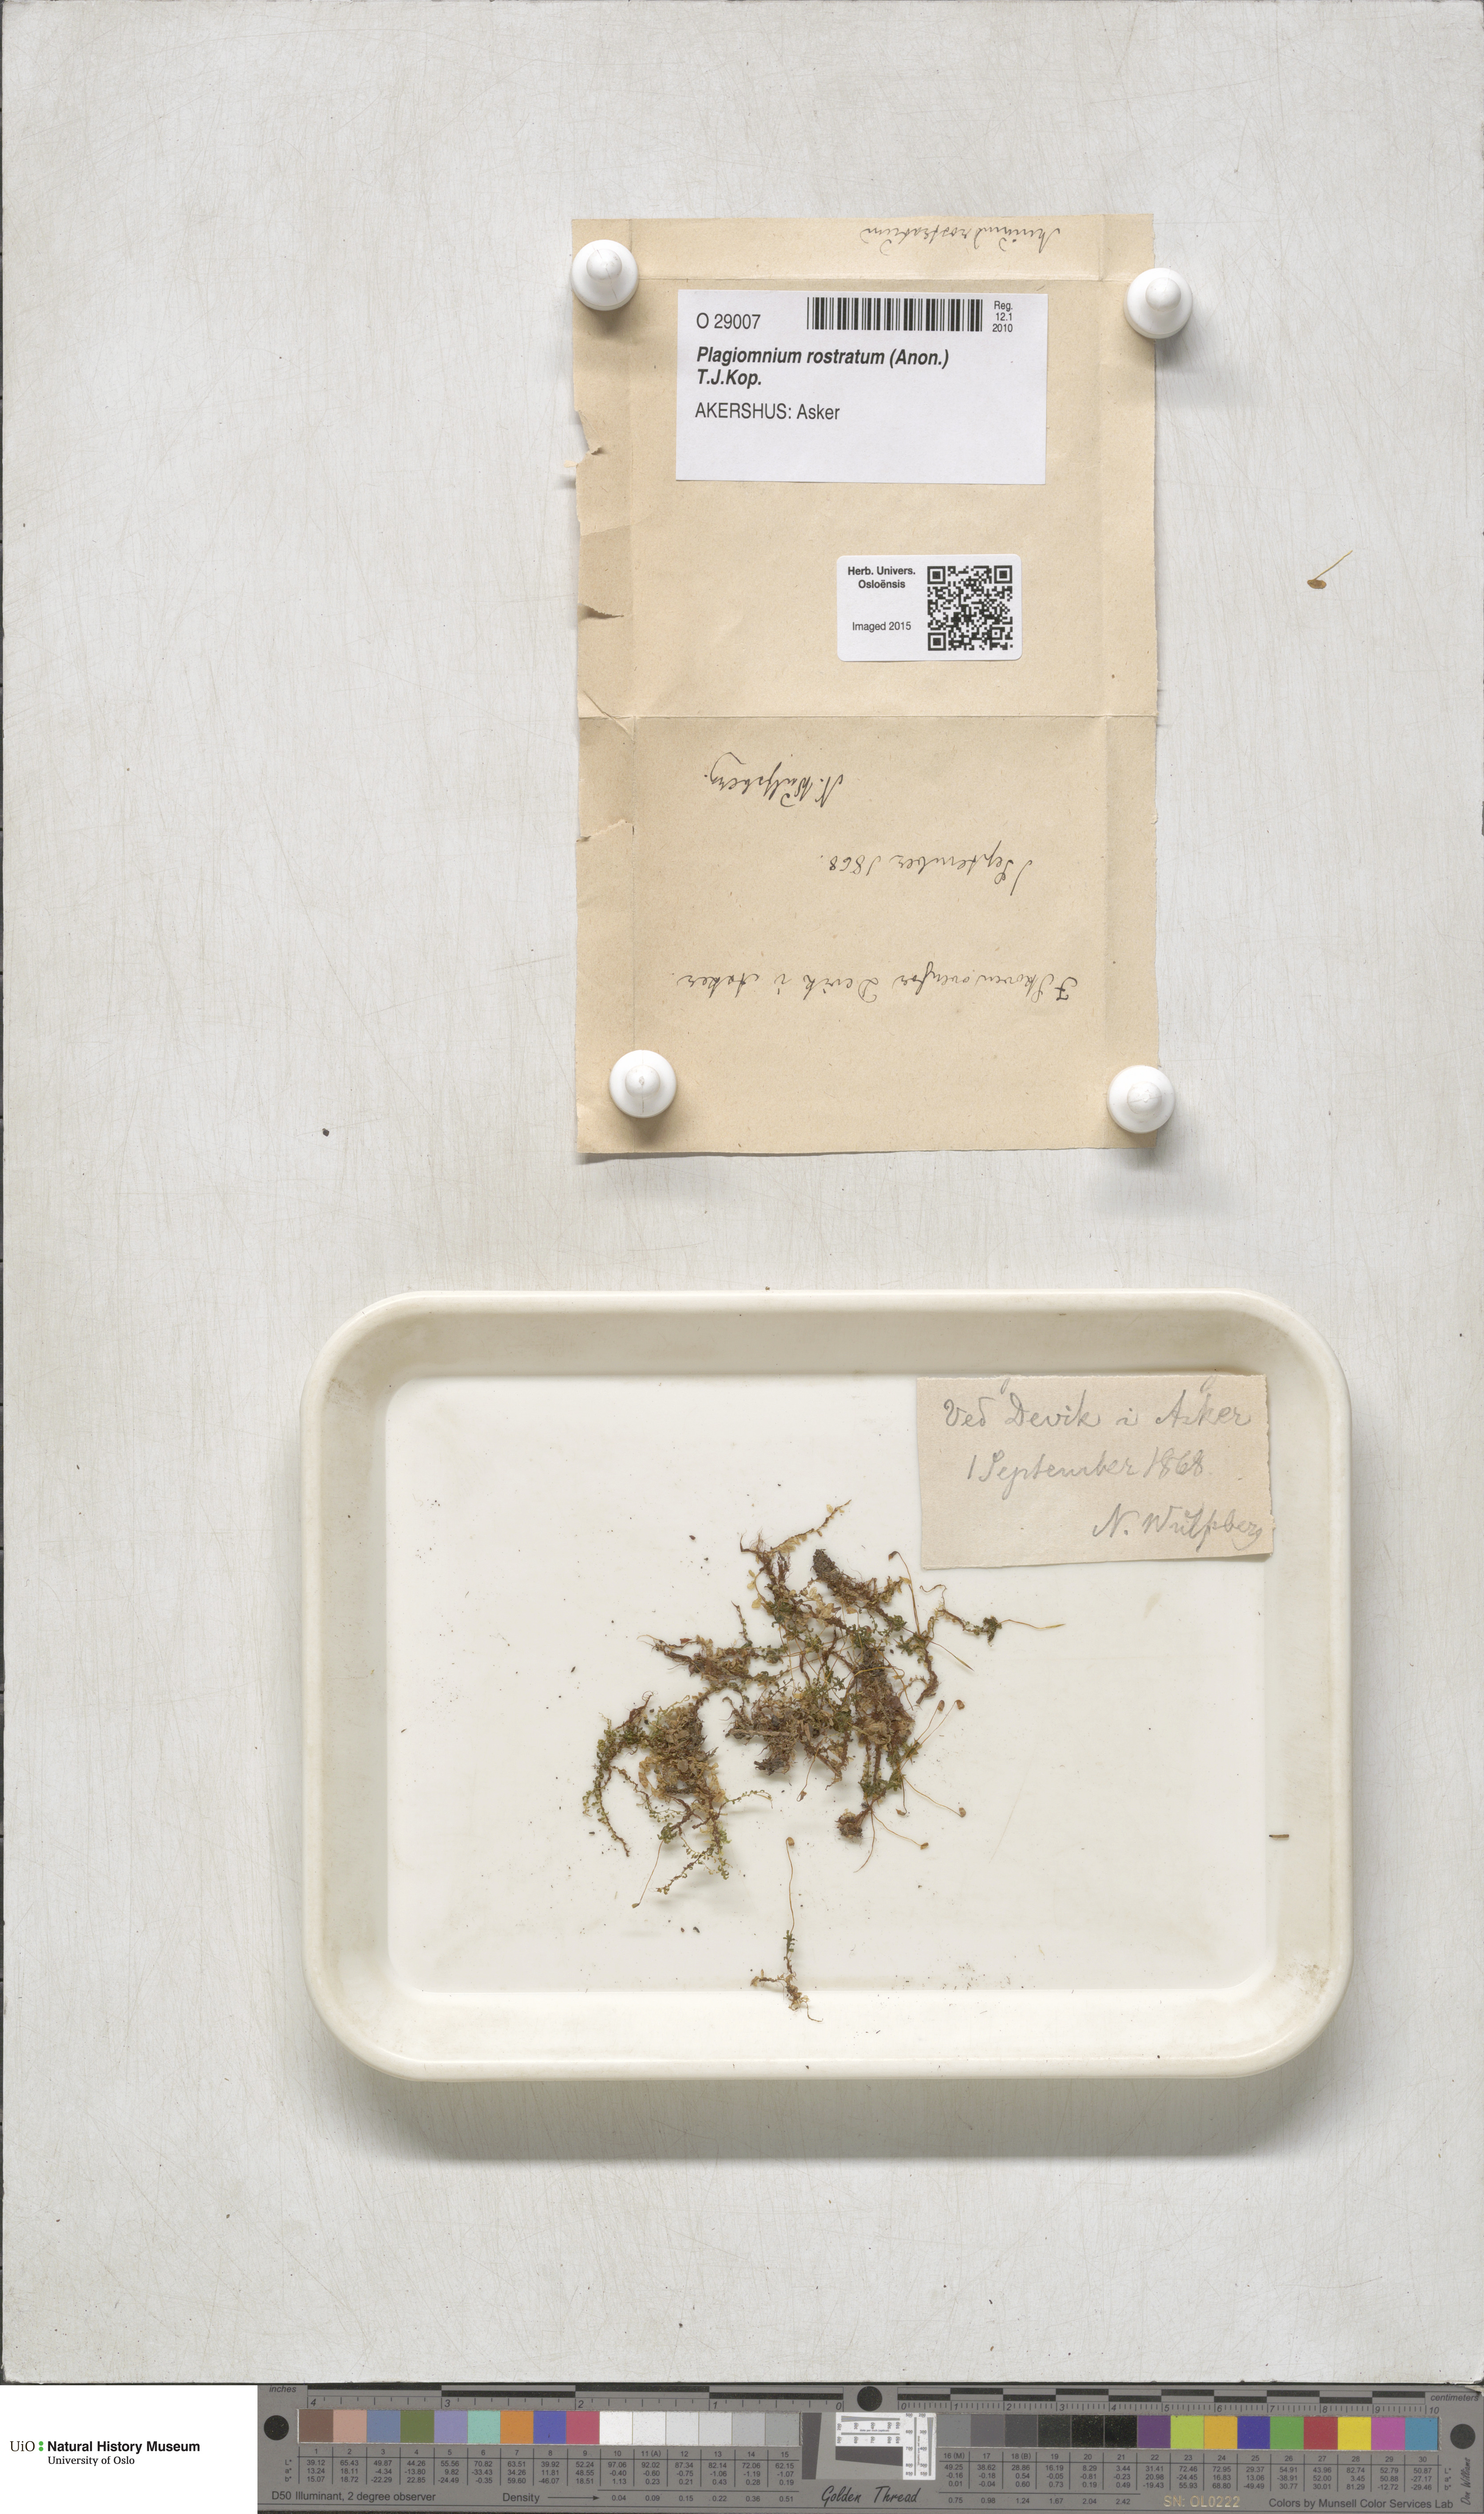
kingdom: Plantae
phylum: Bryophyta
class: Bryopsida
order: Bryales
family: Mniaceae
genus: Plagiomnium
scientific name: Plagiomnium rostratum
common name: Long-beaked leafy moss
